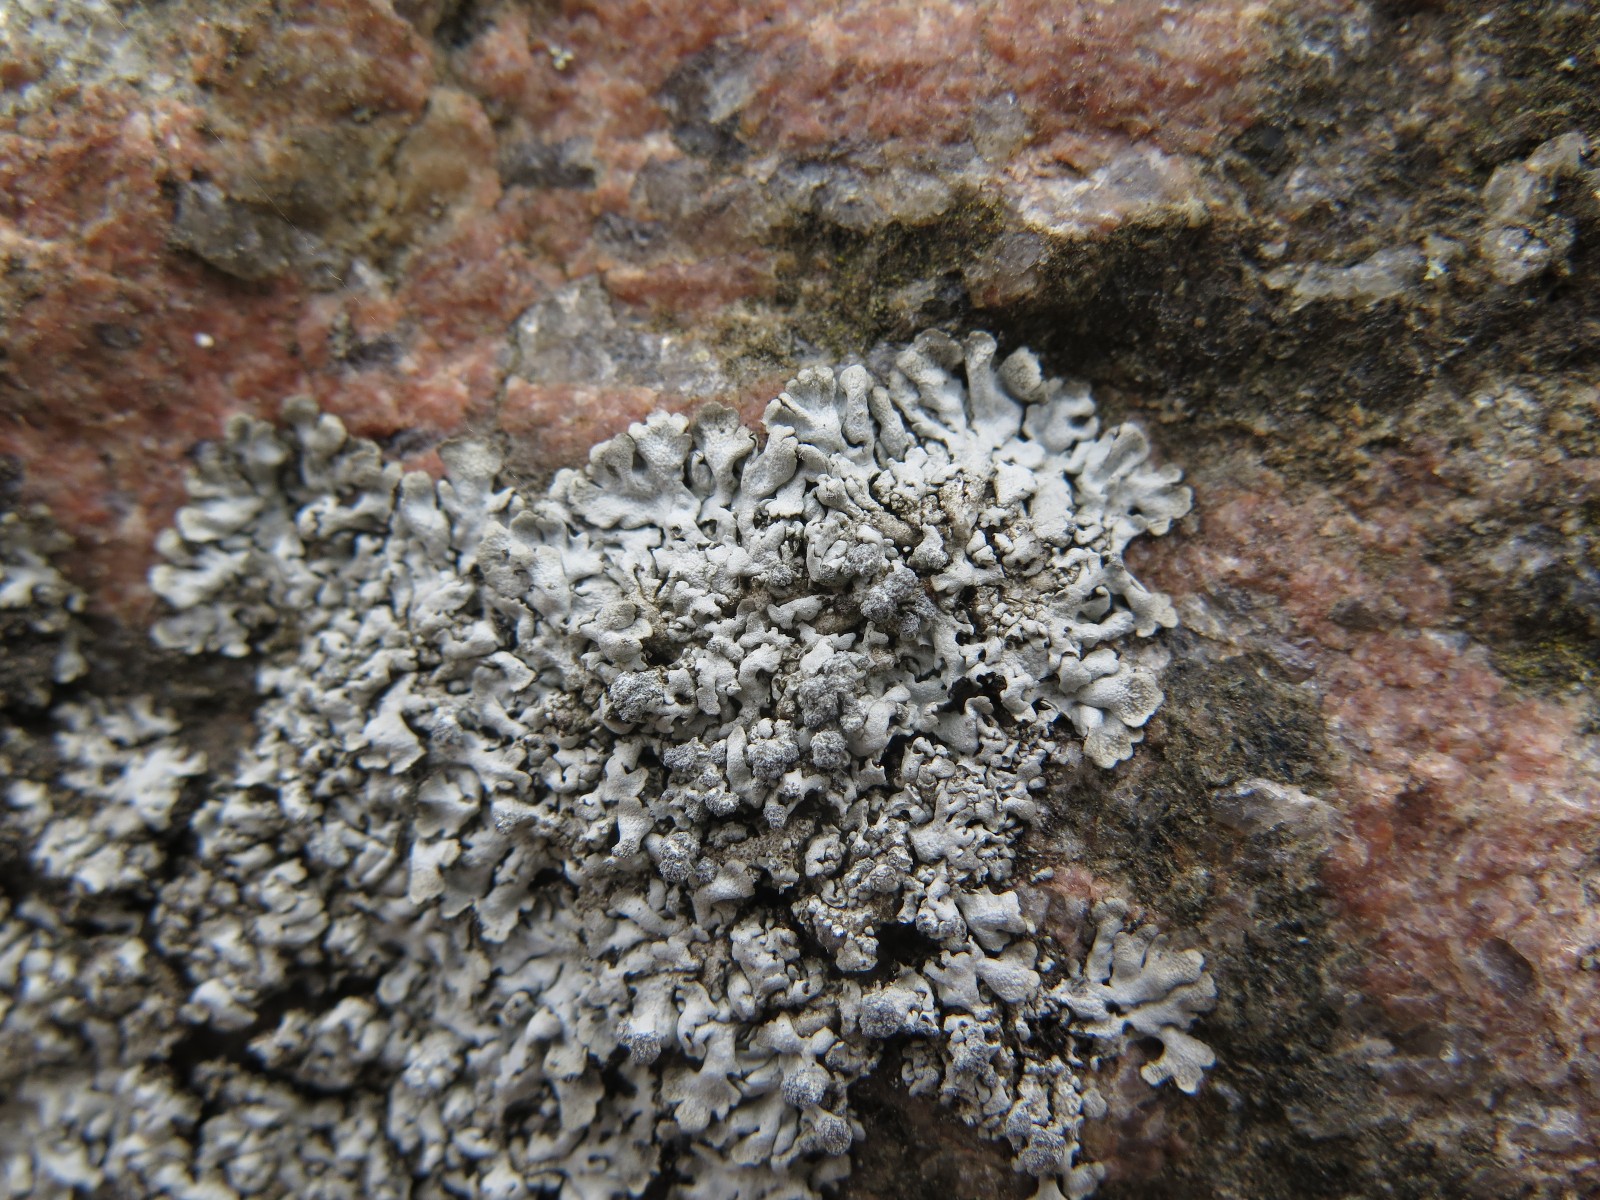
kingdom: Fungi
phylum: Ascomycota
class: Lecanoromycetes
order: Caliciales
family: Physciaceae
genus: Physcia
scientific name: Physcia caesia
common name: blågrå rosetlav
